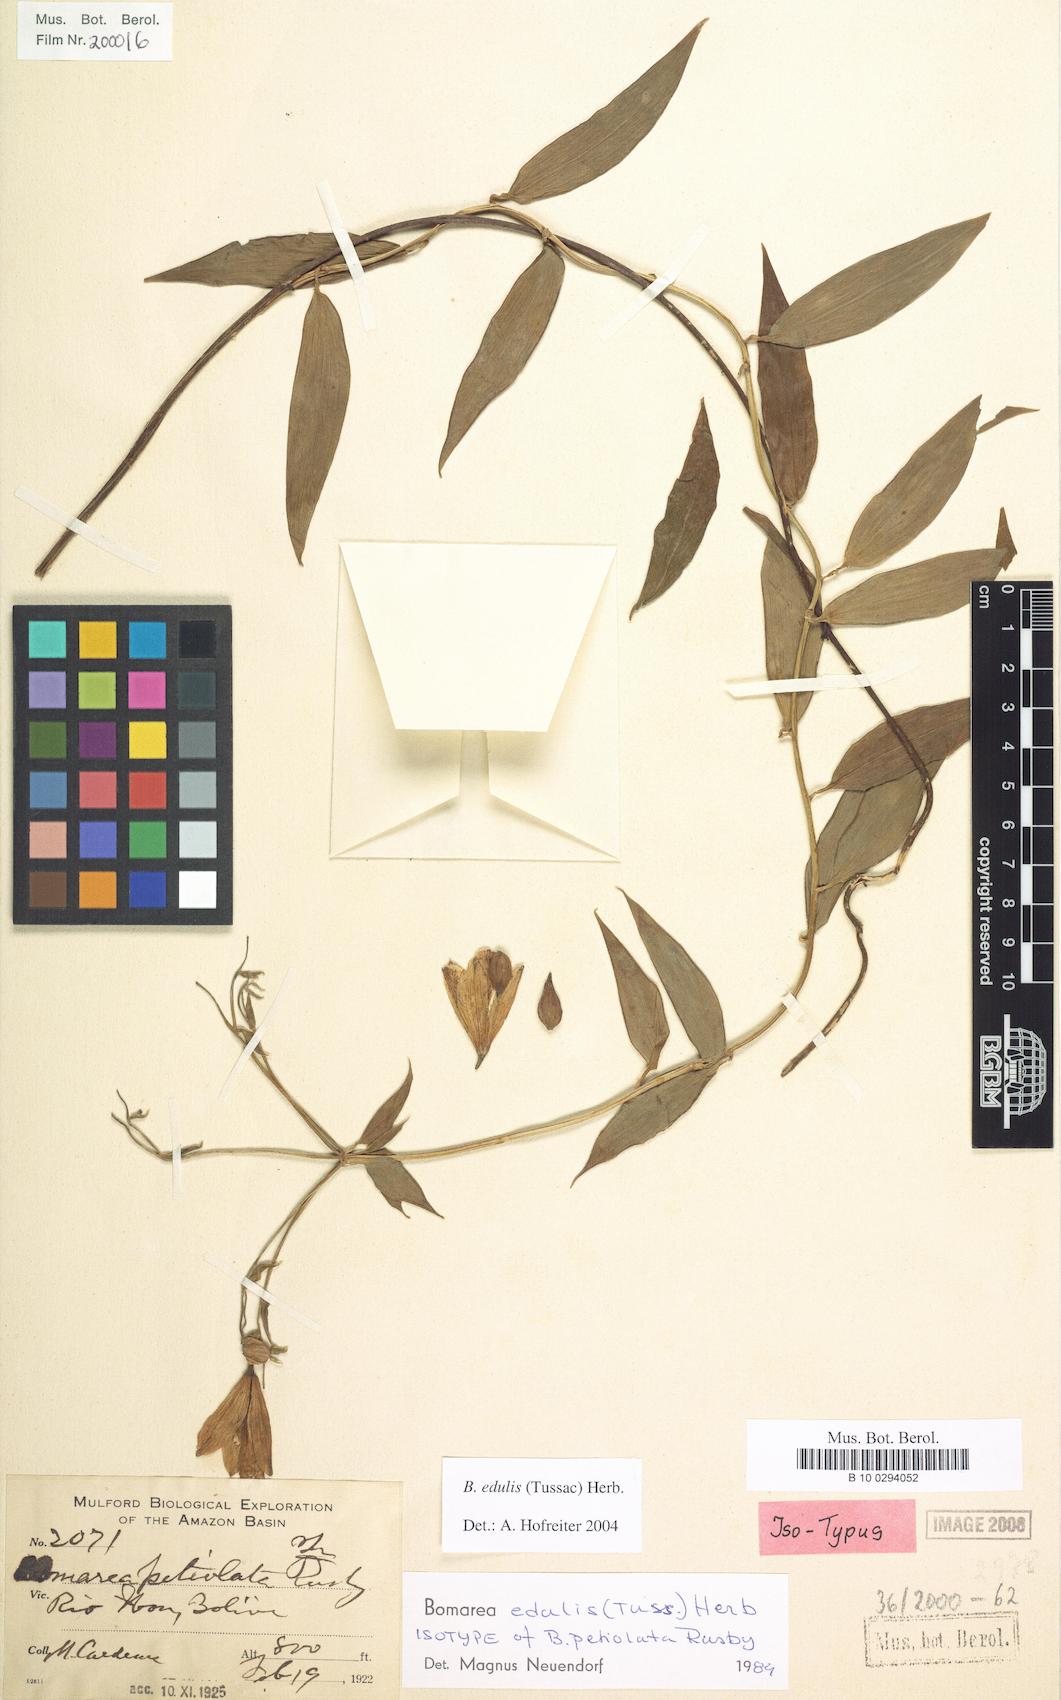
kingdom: Plantae
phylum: Tracheophyta
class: Liliopsida
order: Liliales
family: Alstroemeriaceae
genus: Bomarea
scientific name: Bomarea edulis
